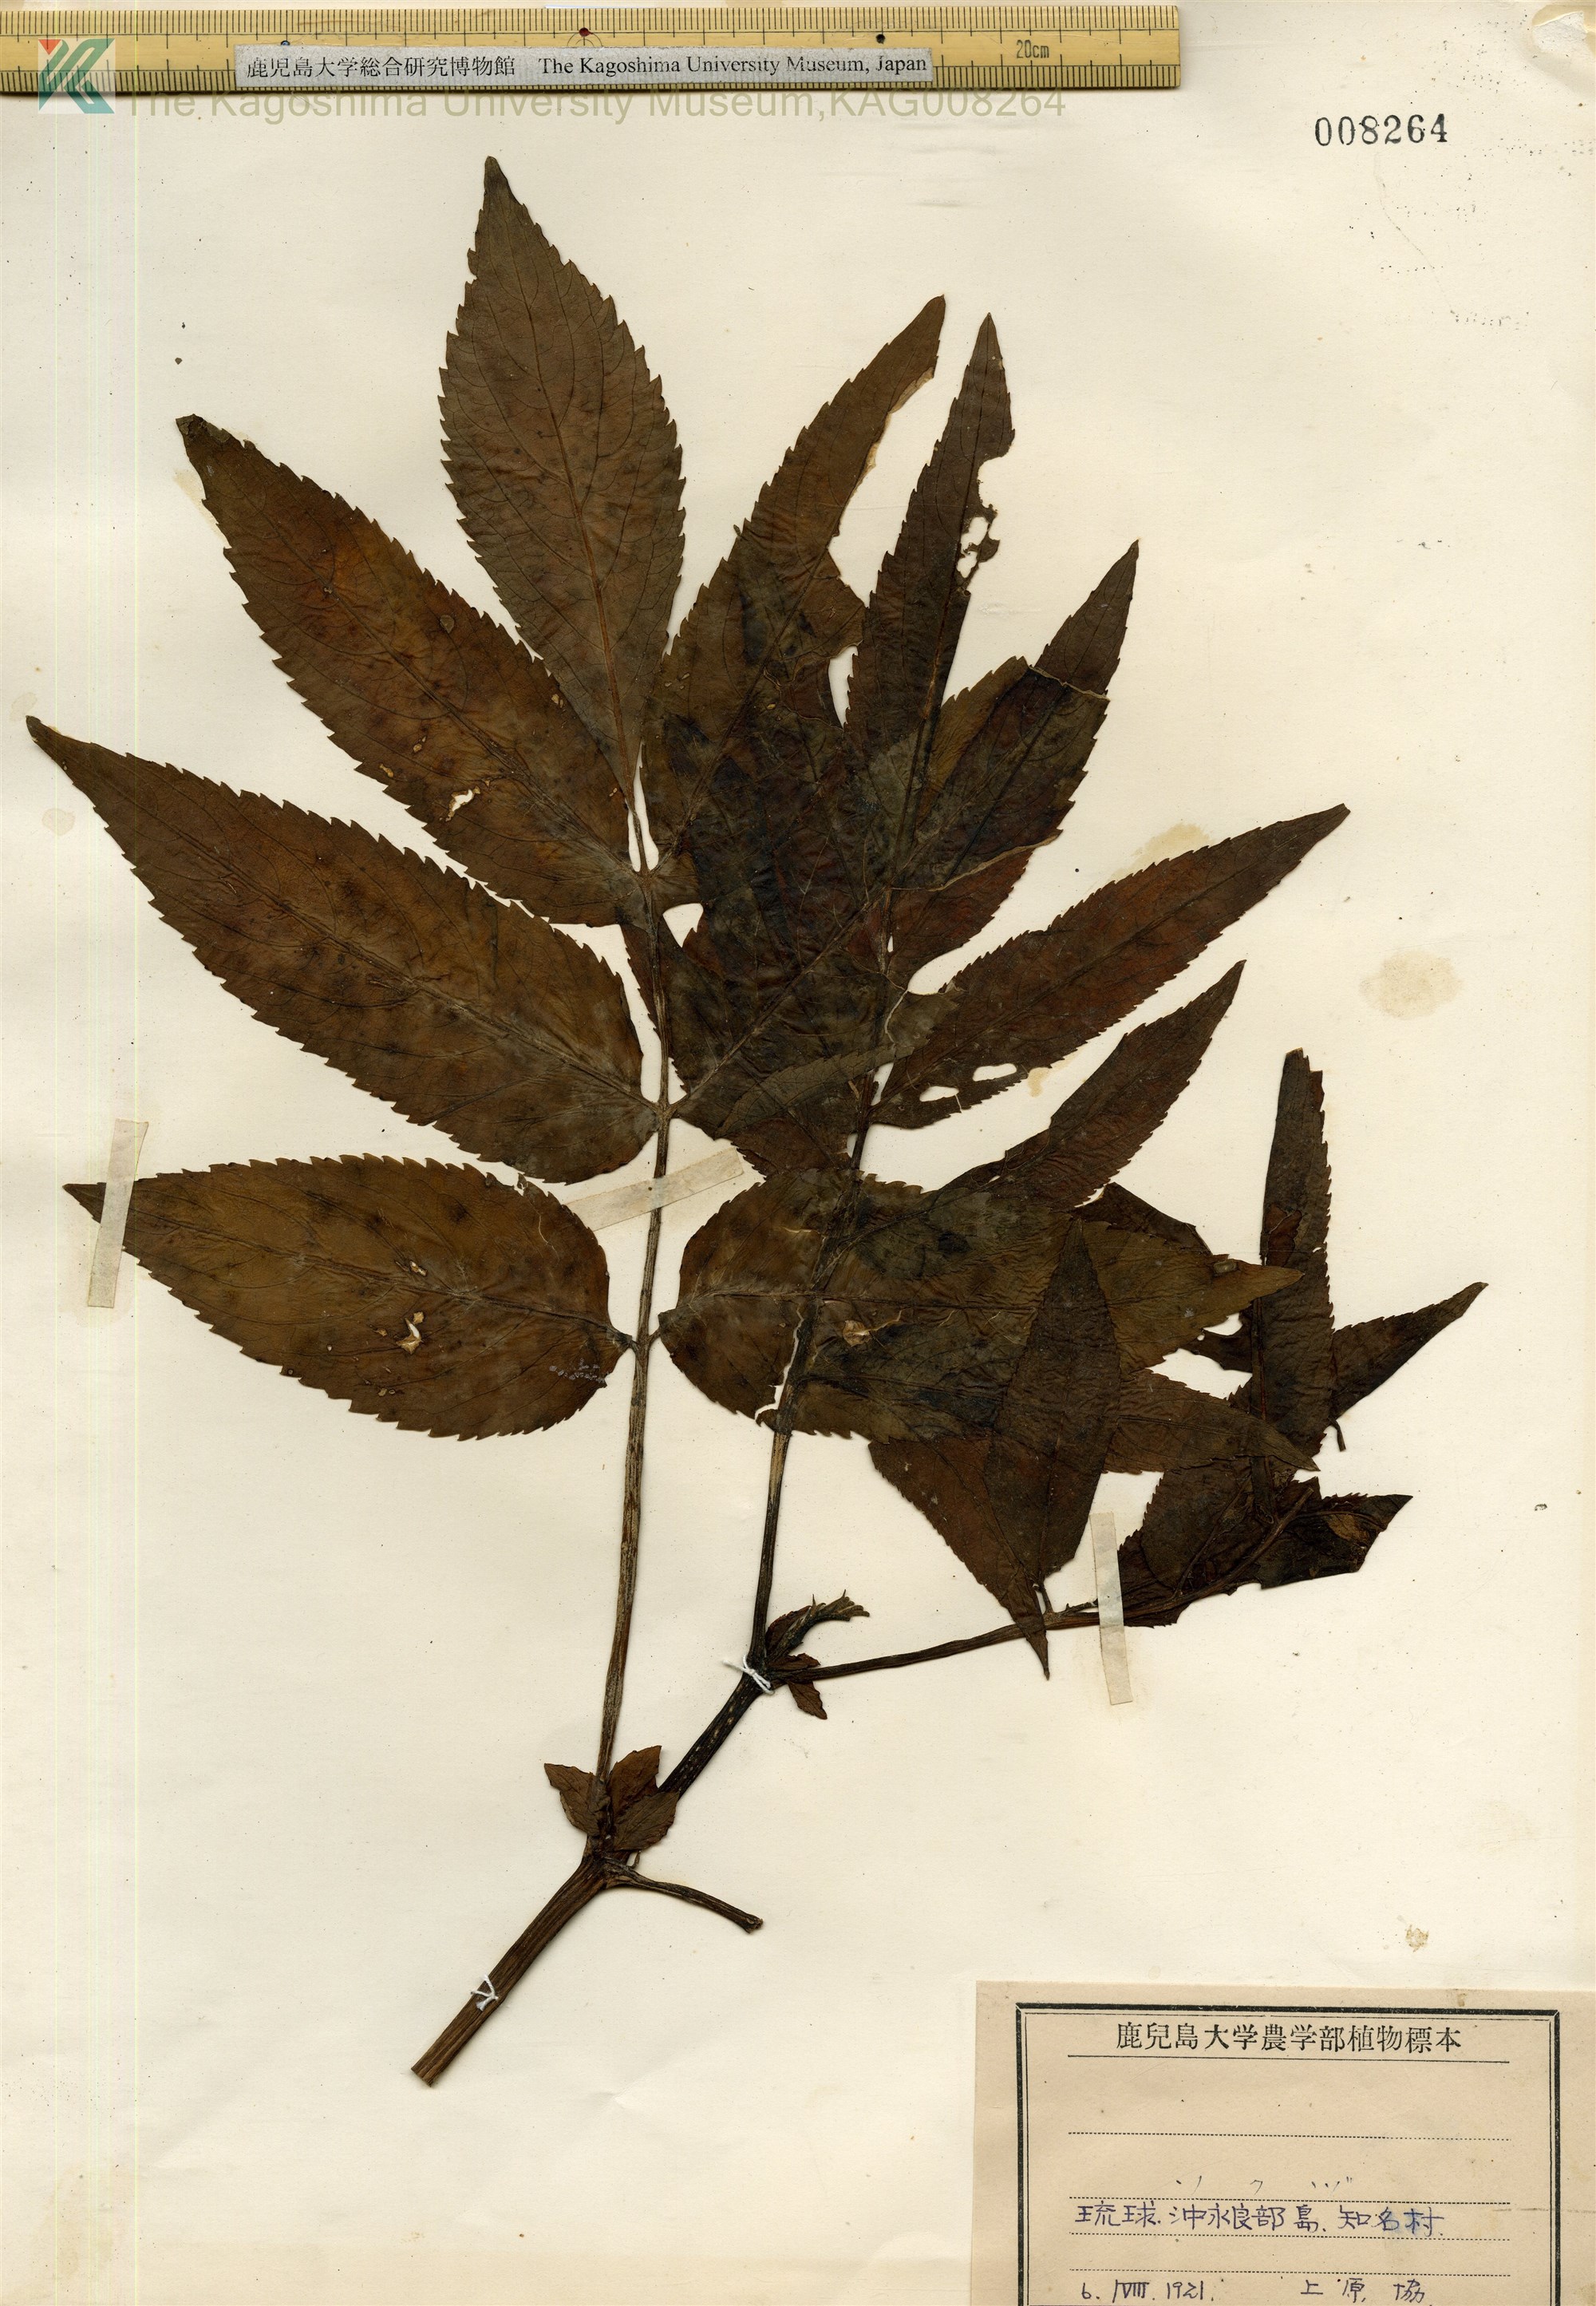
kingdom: Plantae
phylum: Tracheophyta
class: Magnoliopsida
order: Dipsacales
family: Viburnaceae
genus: Sambucus
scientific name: Sambucus javanica
